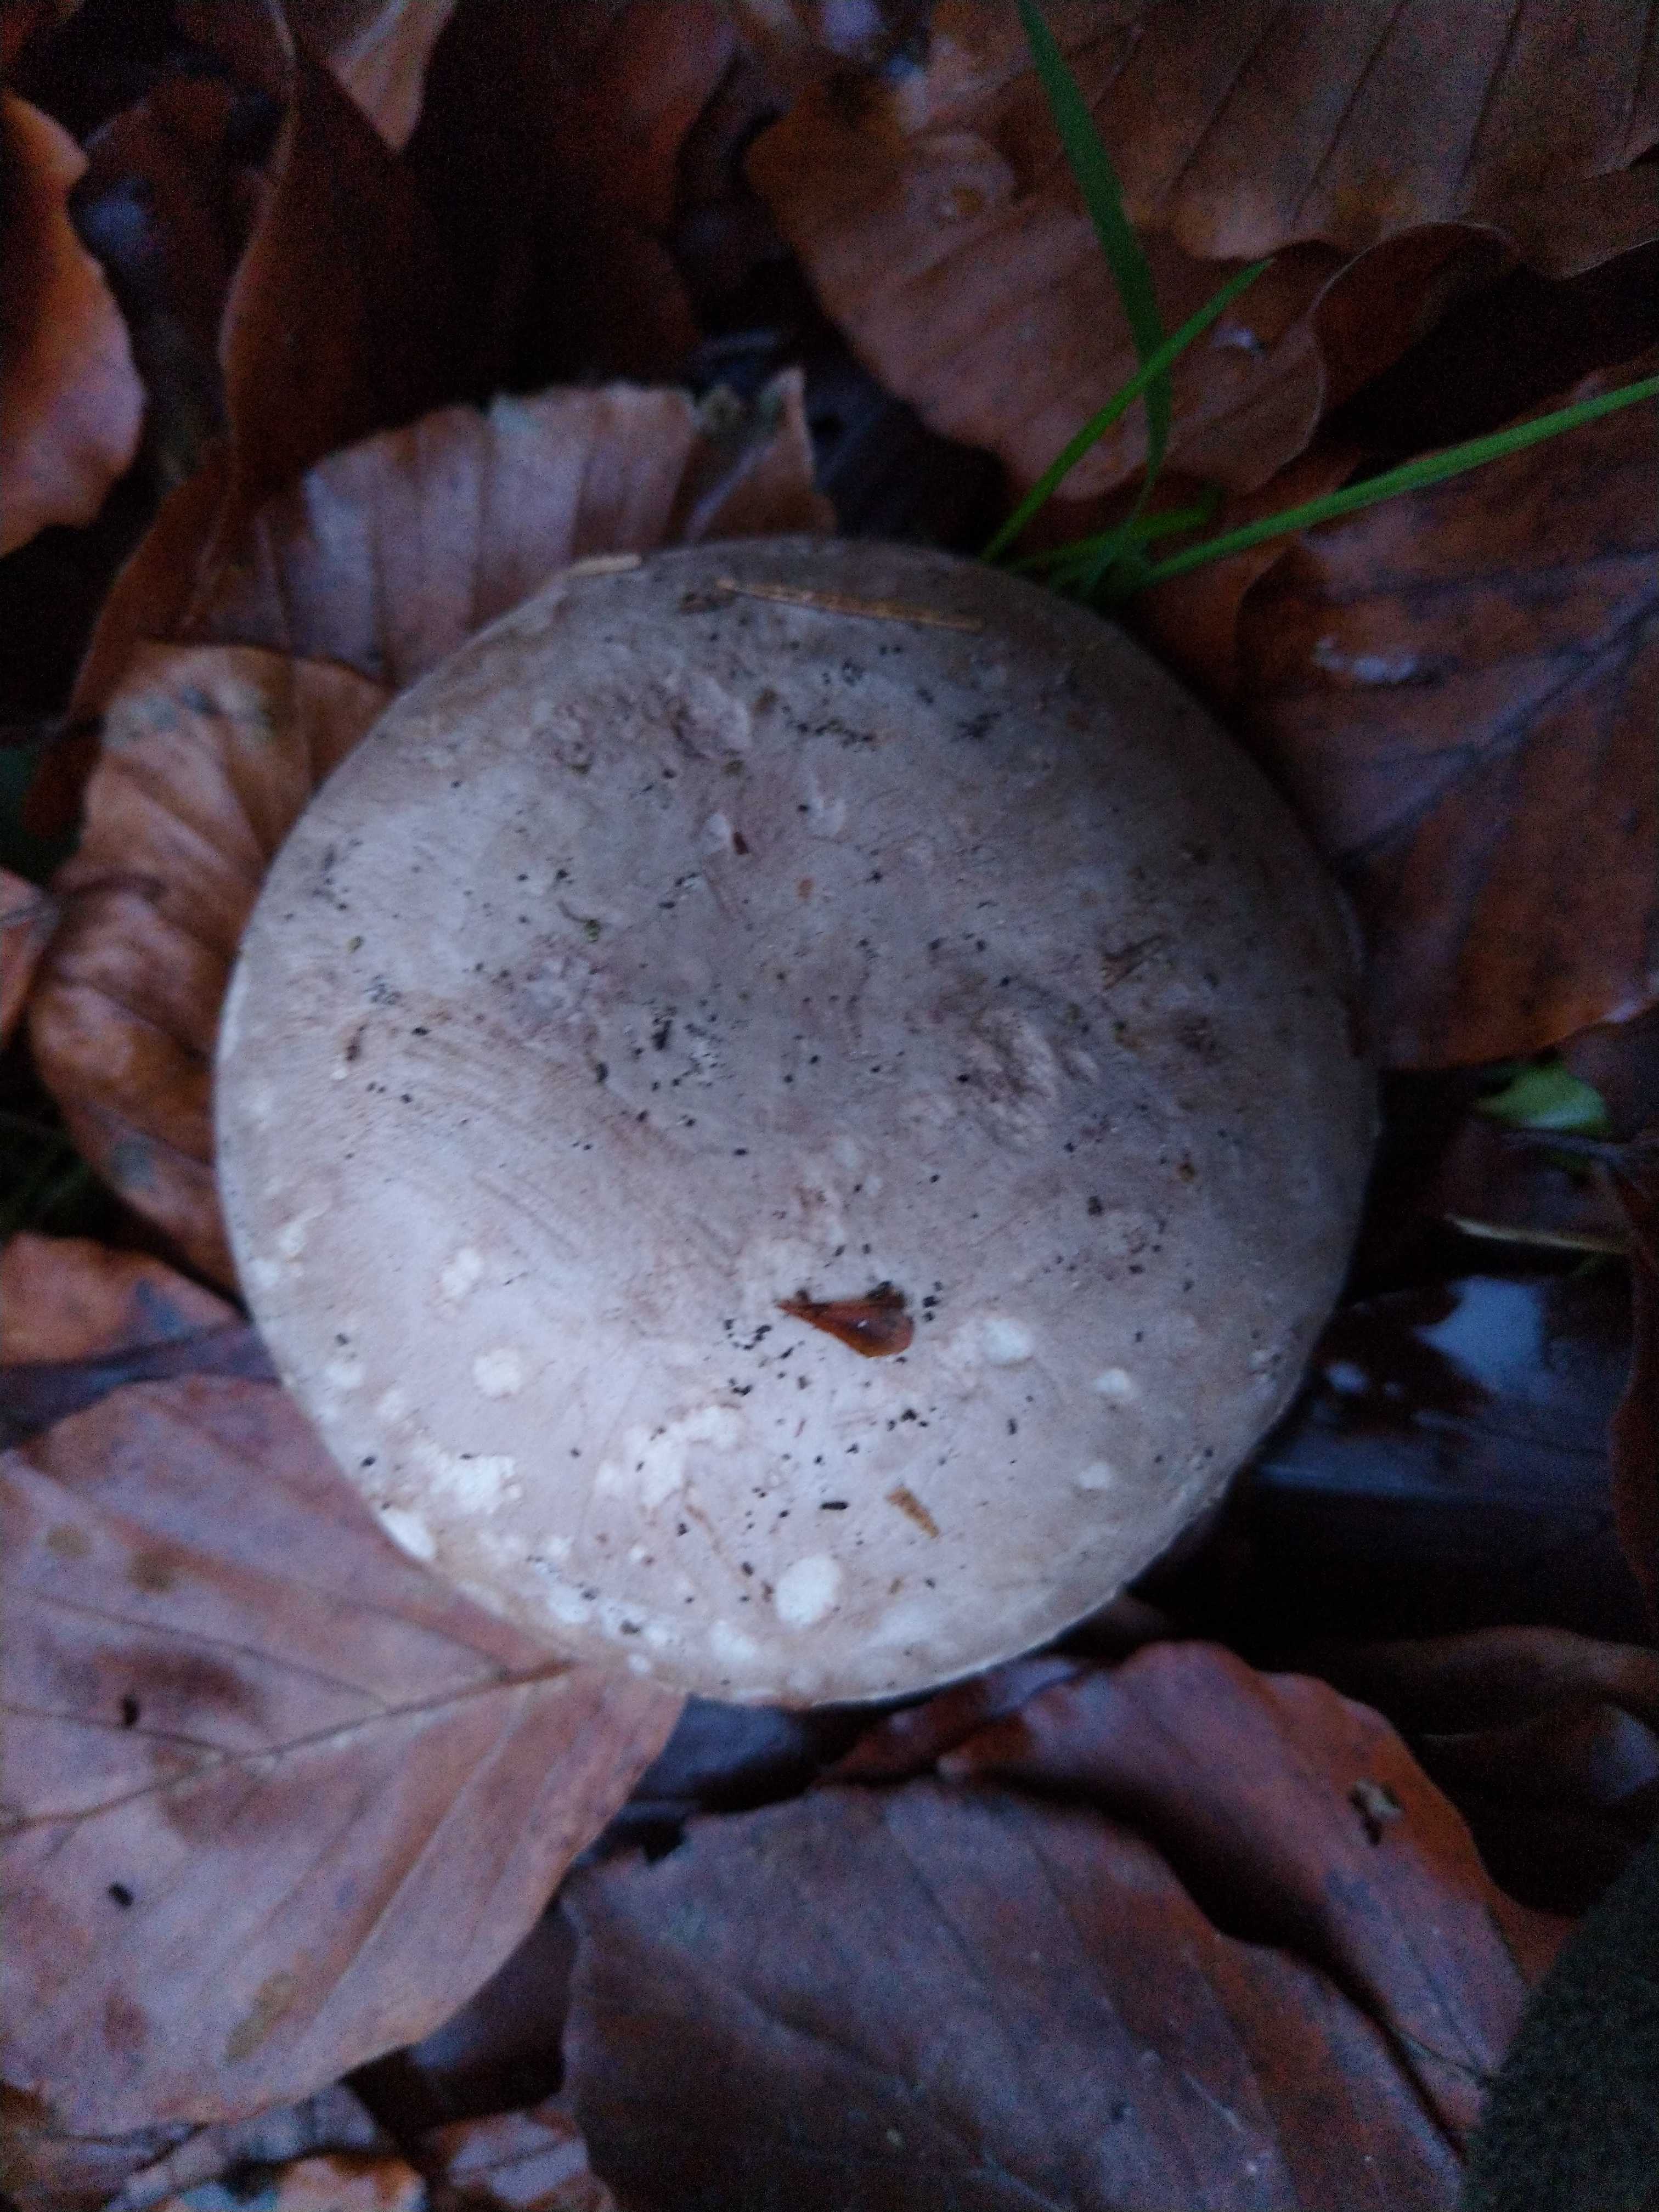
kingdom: Fungi
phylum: Basidiomycota
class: Agaricomycetes
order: Agaricales
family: Agaricaceae
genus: Agaricus
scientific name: Agaricus
